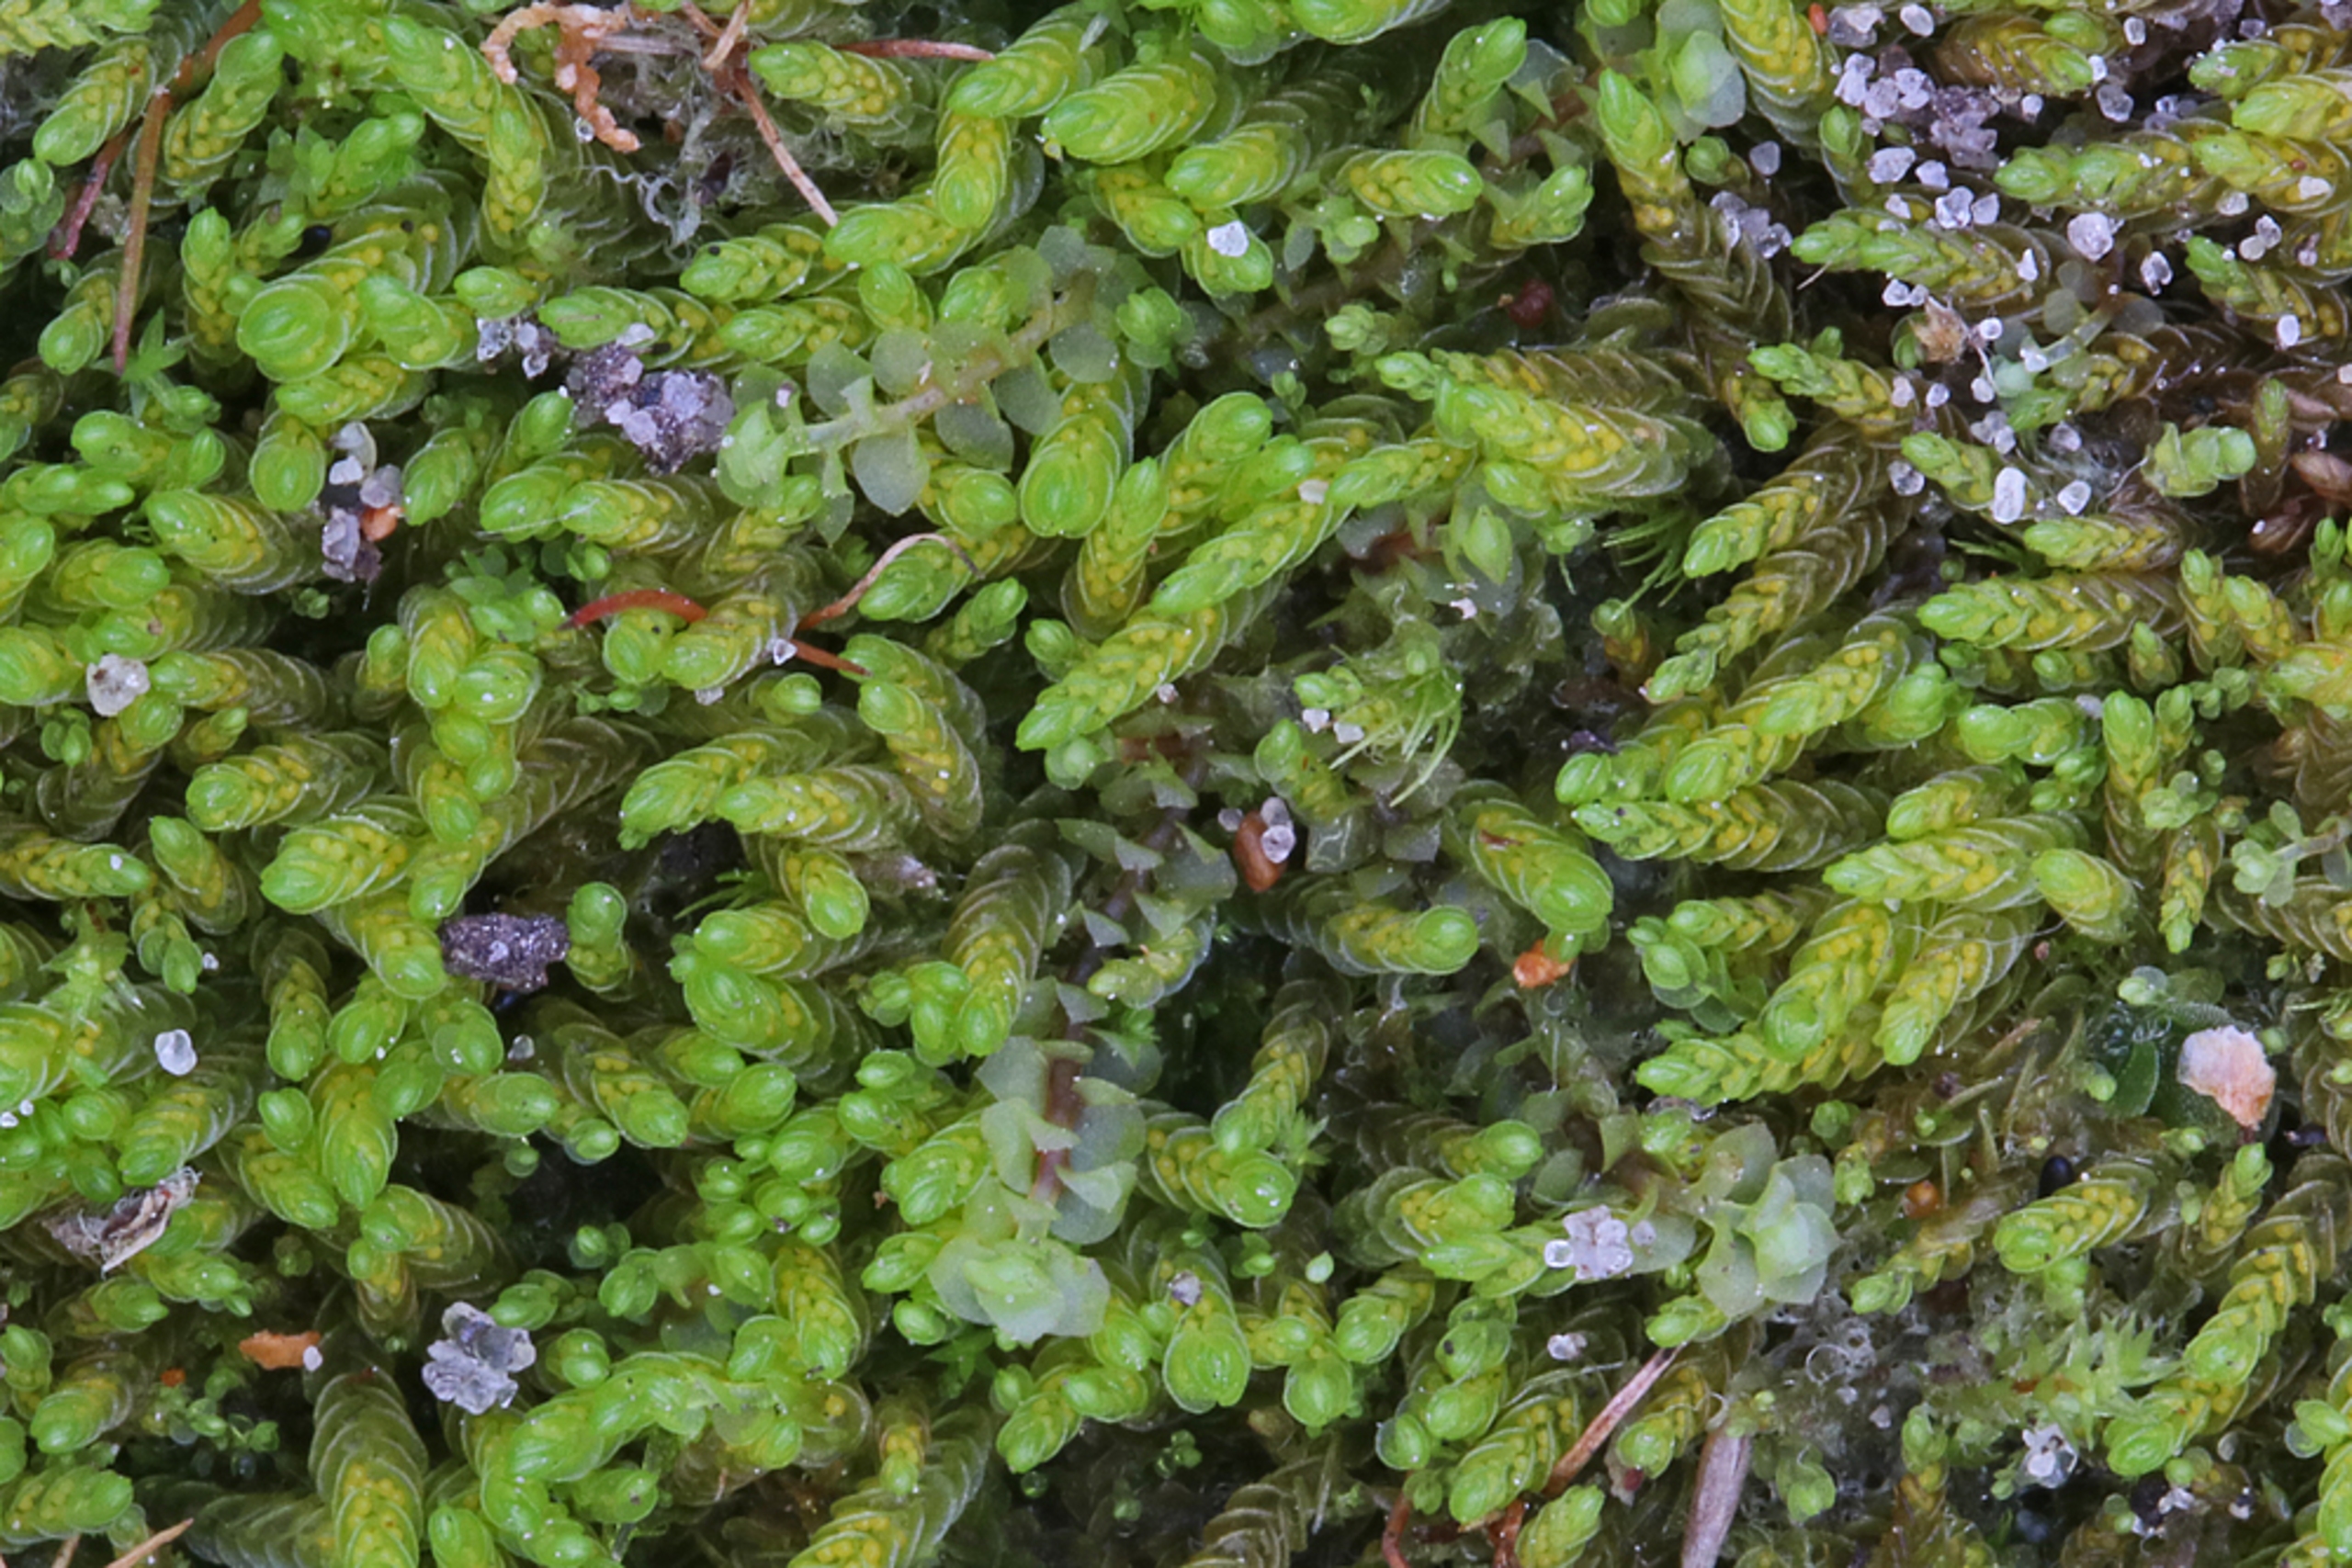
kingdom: Plantae
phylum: Marchantiophyta
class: Jungermanniopsida
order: Jungermanniales
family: Solenostomataceae
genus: Solenostoma
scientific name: Solenostoma gracillimum
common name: Vinget rørmund
